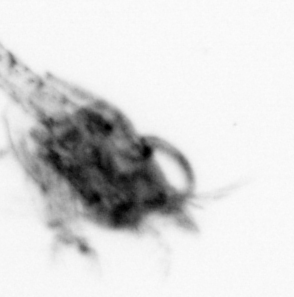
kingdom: Animalia
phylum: Arthropoda
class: Malacostraca
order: Decapoda
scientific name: Decapoda
